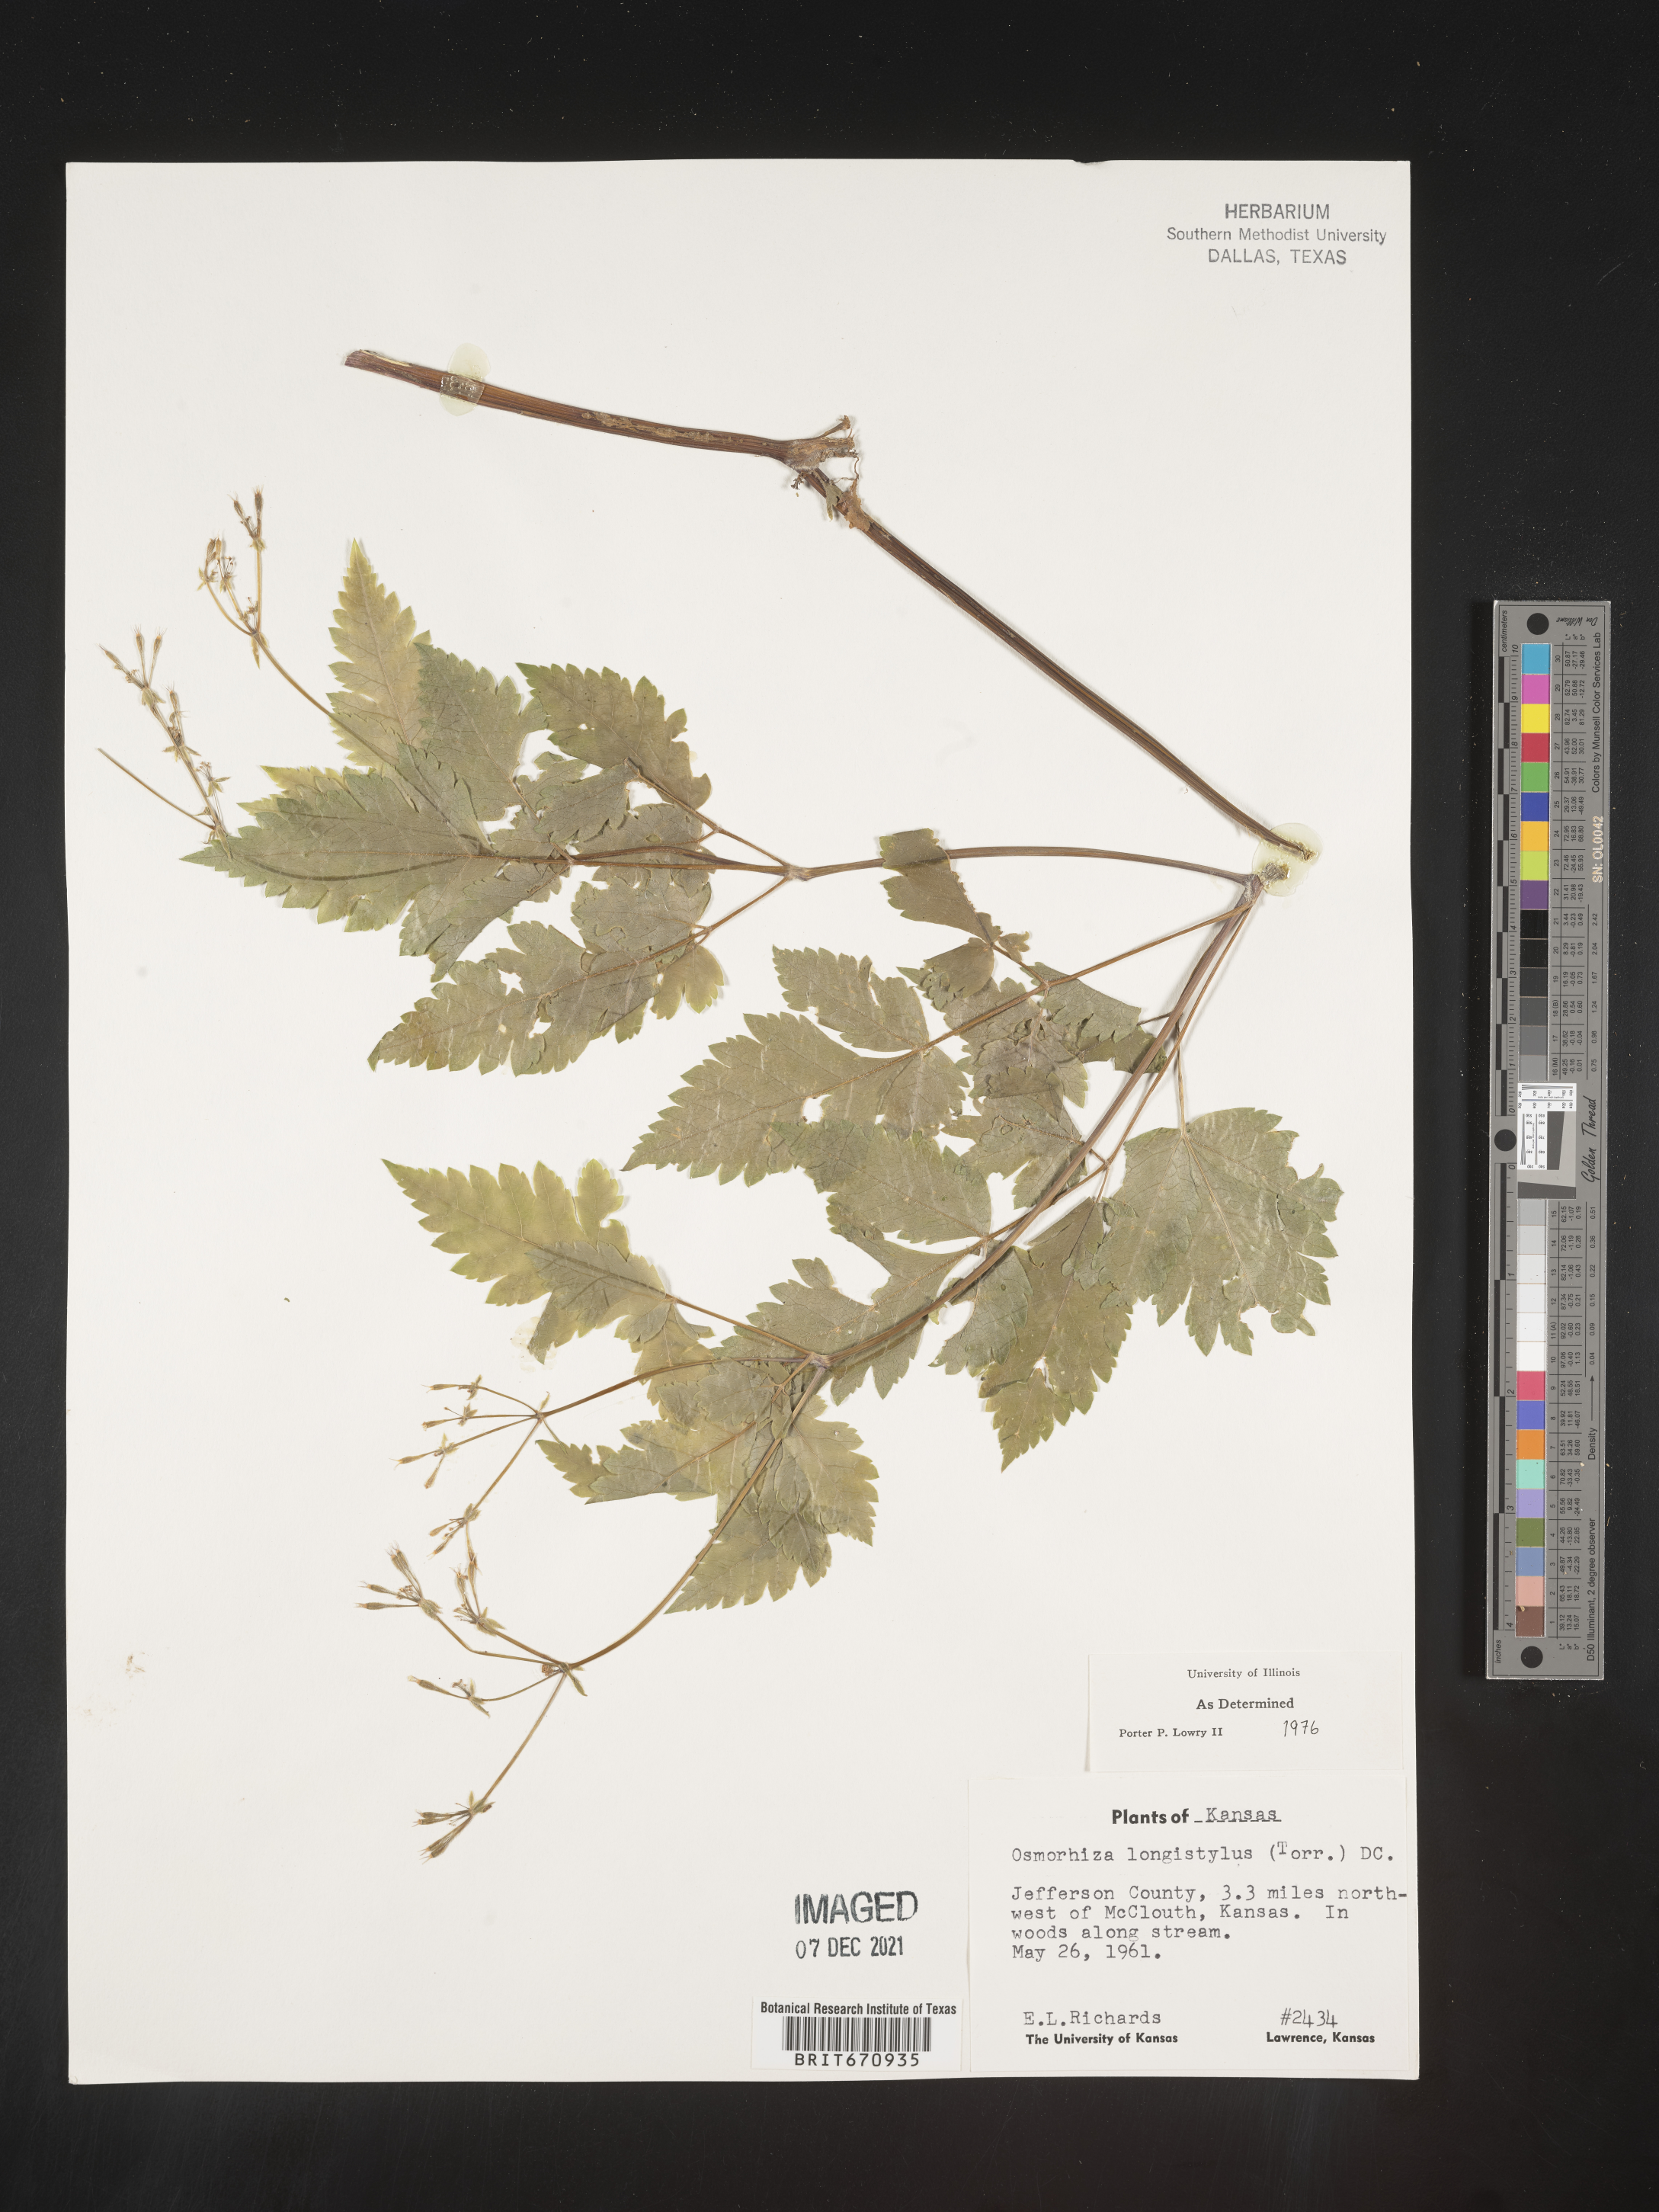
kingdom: Plantae
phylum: Tracheophyta
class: Magnoliopsida
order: Apiales
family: Apiaceae
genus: Osmorhiza
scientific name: Osmorhiza longistylis
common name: Smooth sweet cicely
